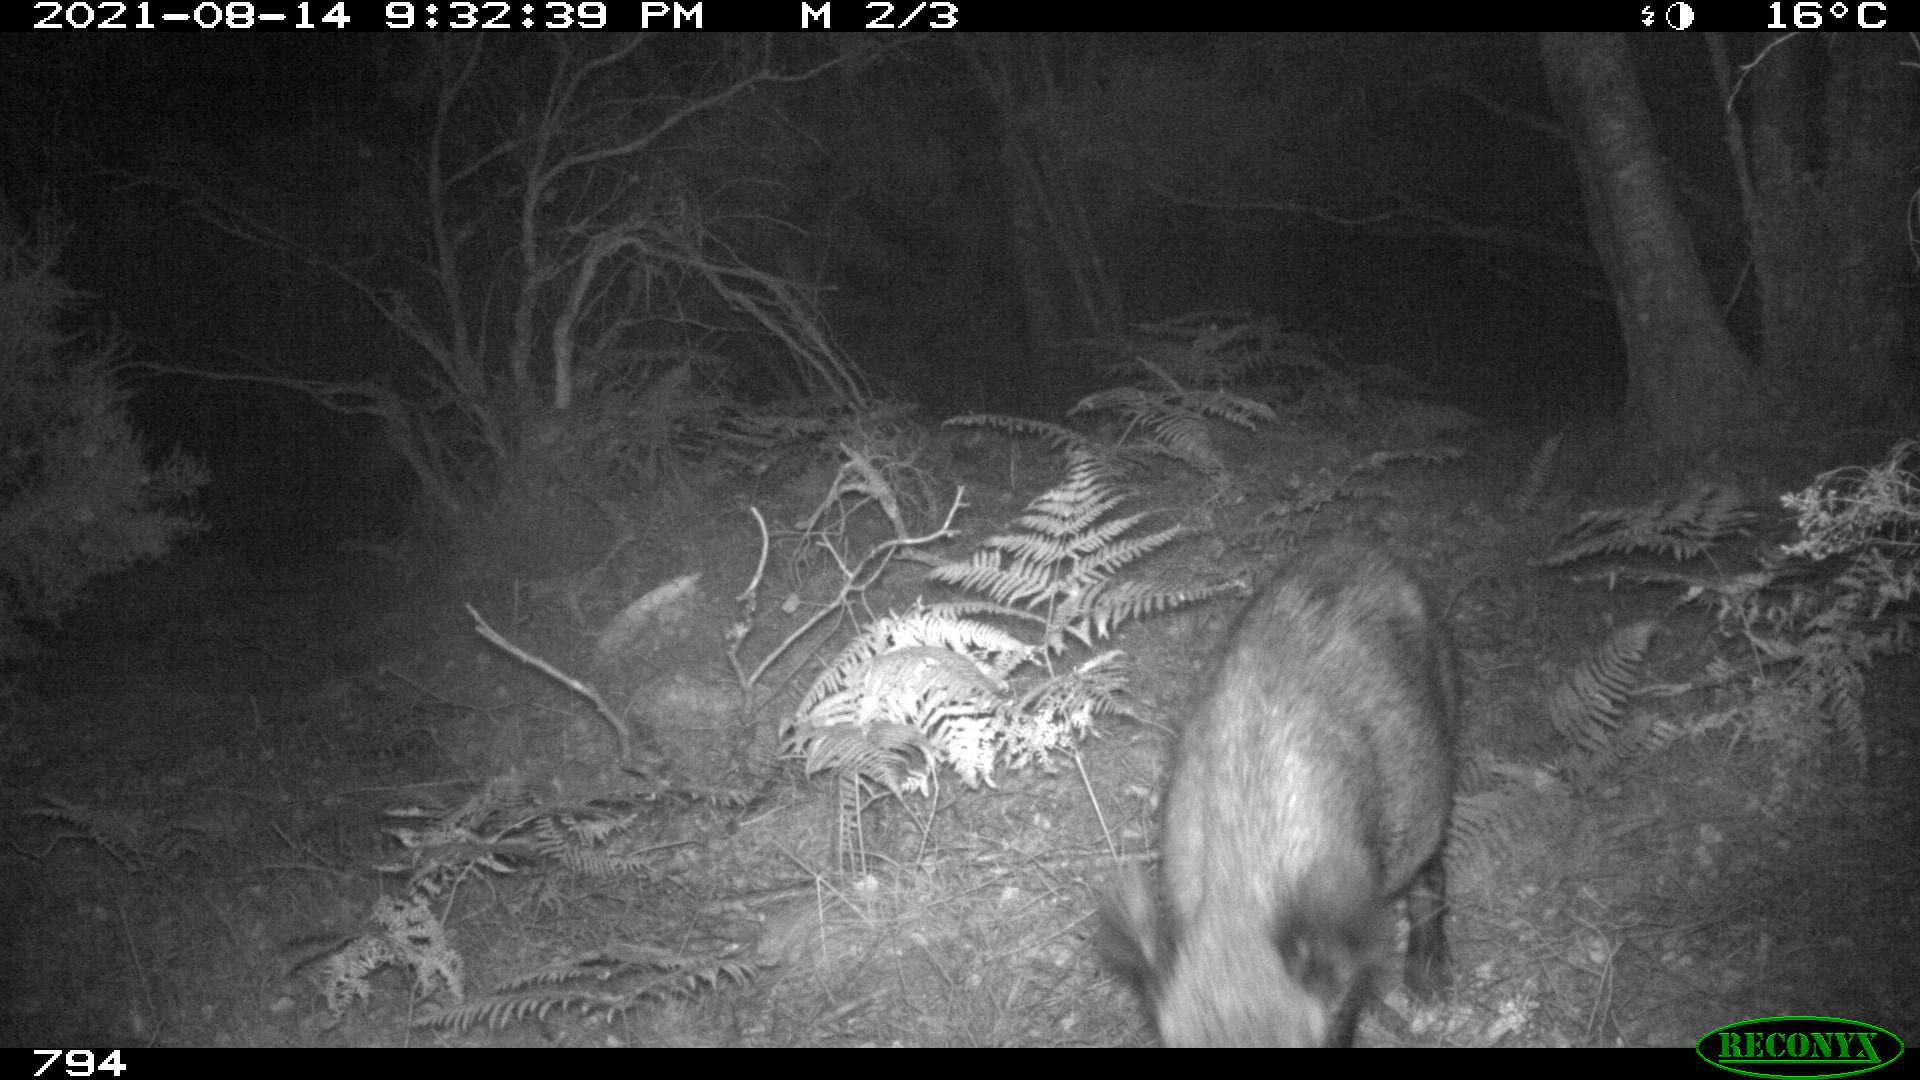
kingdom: Animalia
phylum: Chordata
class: Mammalia
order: Artiodactyla
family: Suidae
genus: Sus
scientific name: Sus scrofa
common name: Wild boar
